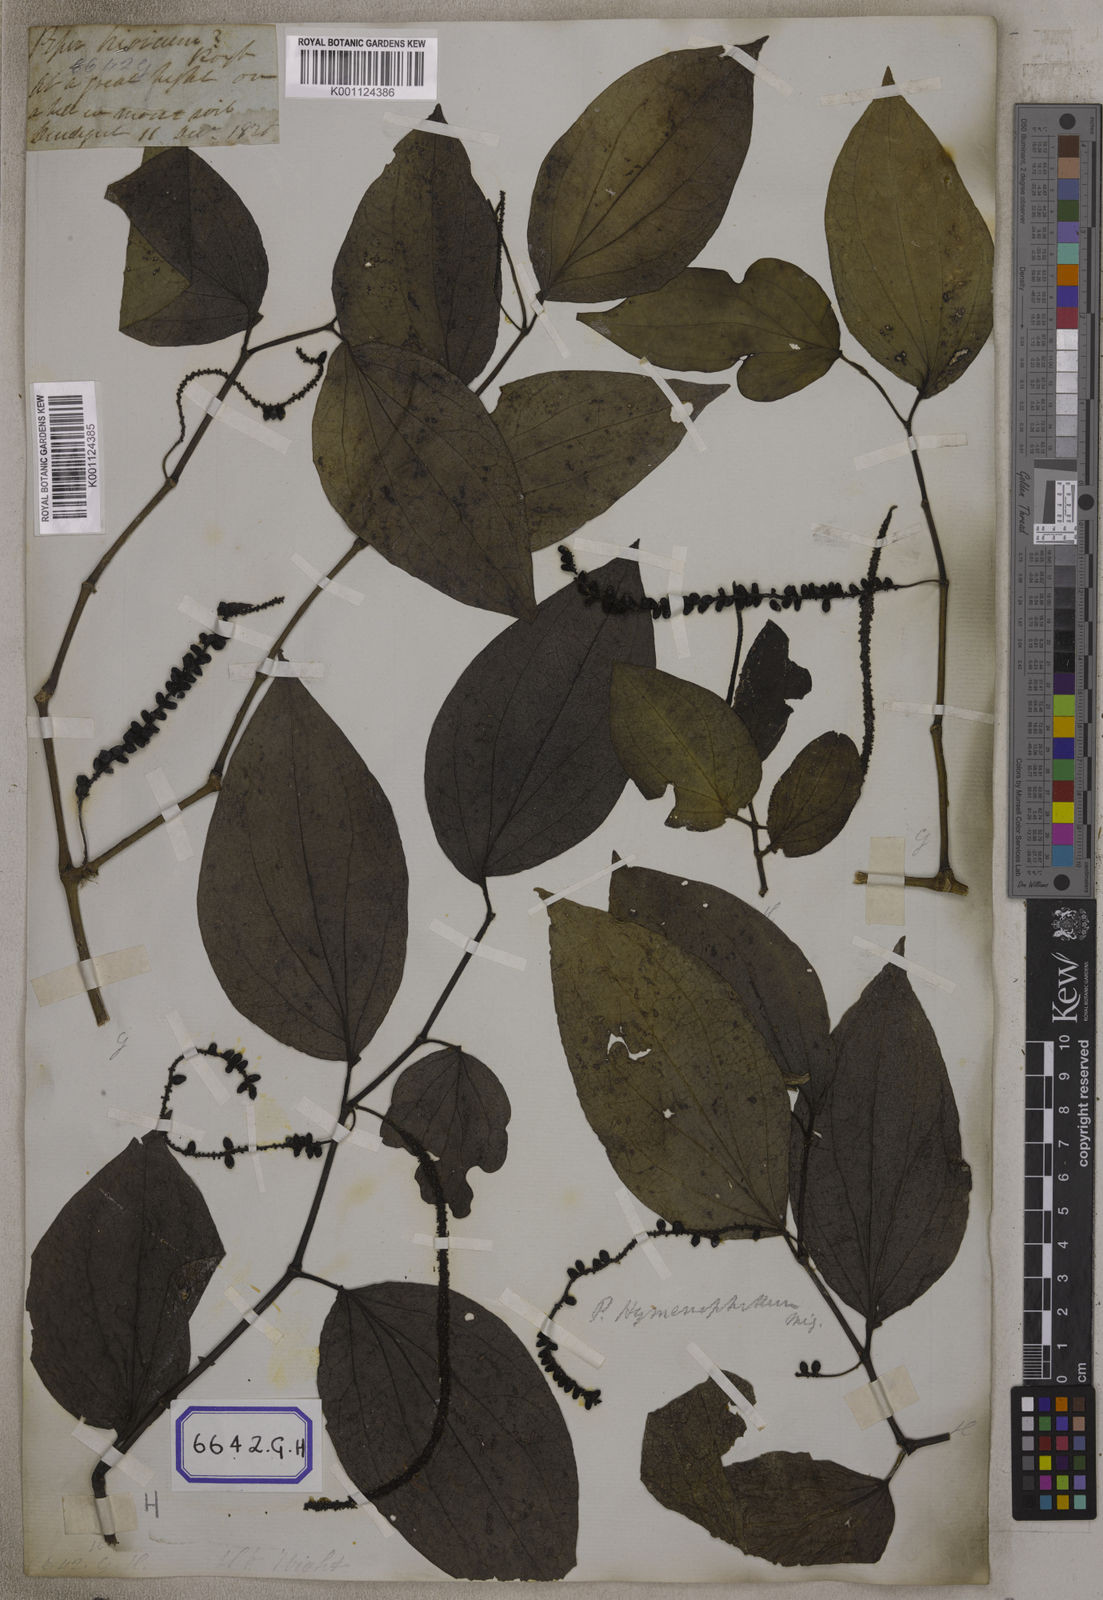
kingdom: Plantae
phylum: Tracheophyta
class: Magnoliopsida
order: Piperales
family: Piperaceae
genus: Piper
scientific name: Piper
